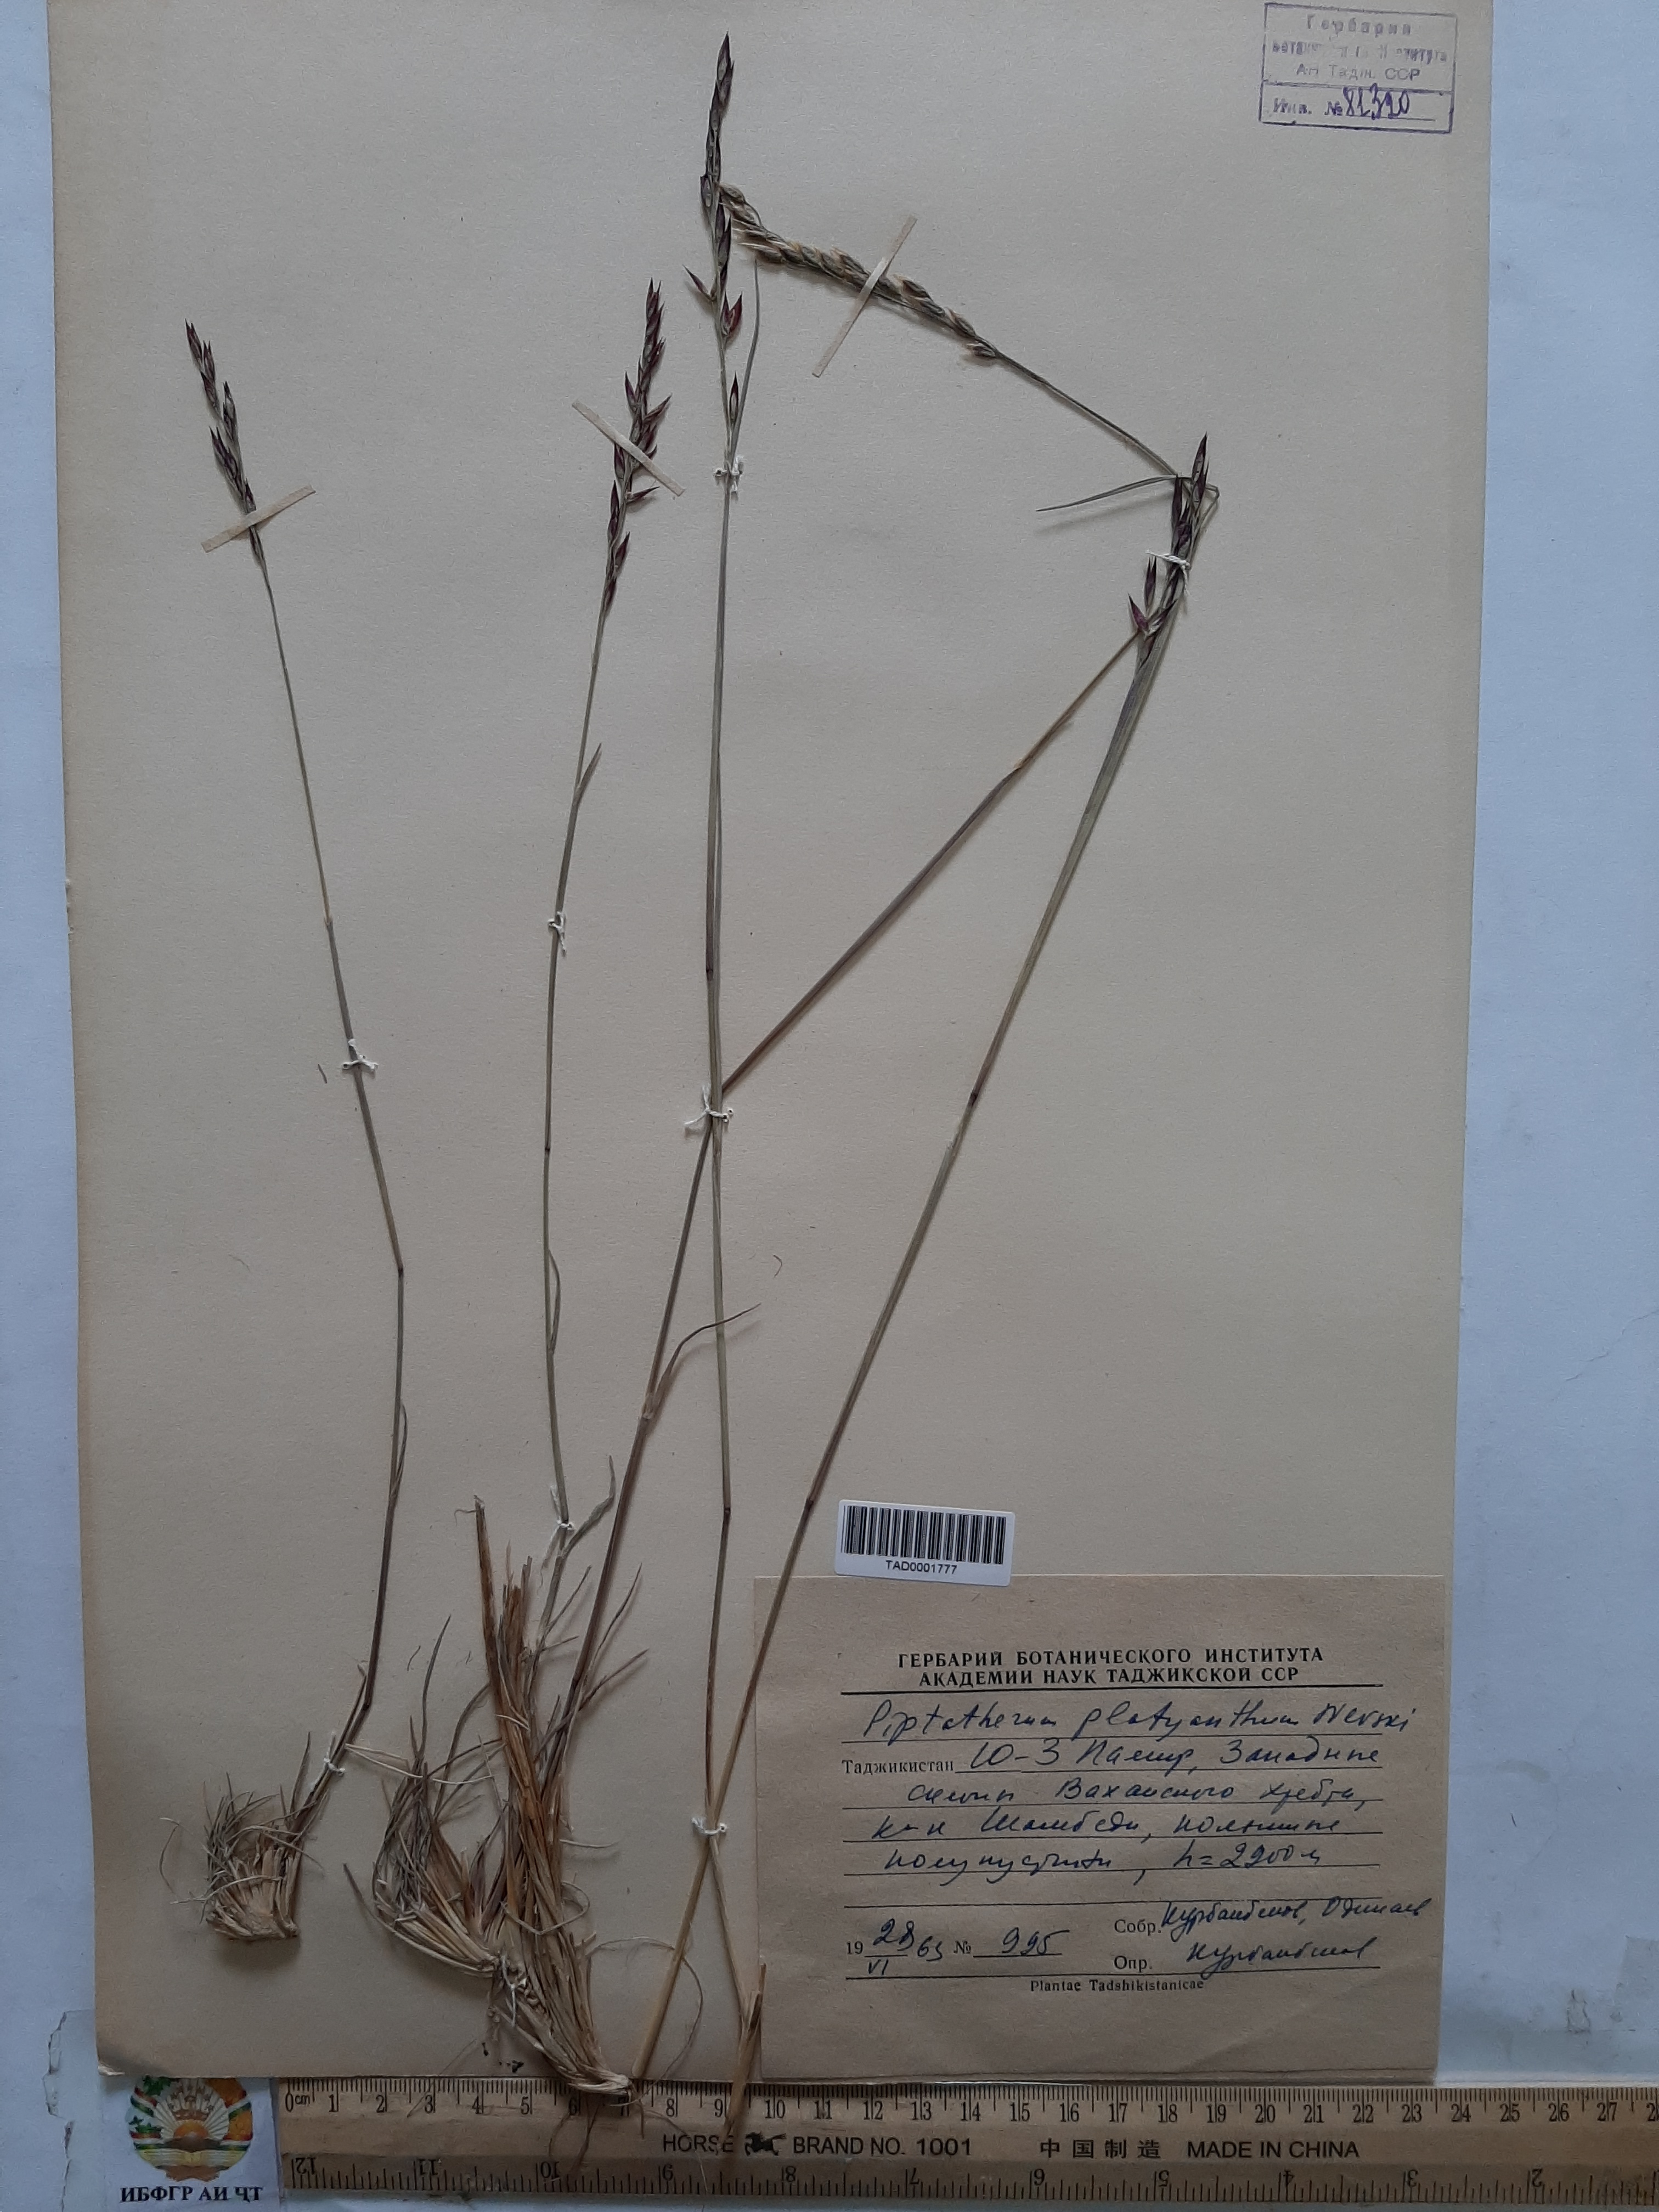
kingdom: Plantae
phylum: Tracheophyta
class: Liliopsida
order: Poales
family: Poaceae
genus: Piptatherum
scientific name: Piptatherum platyanthum
